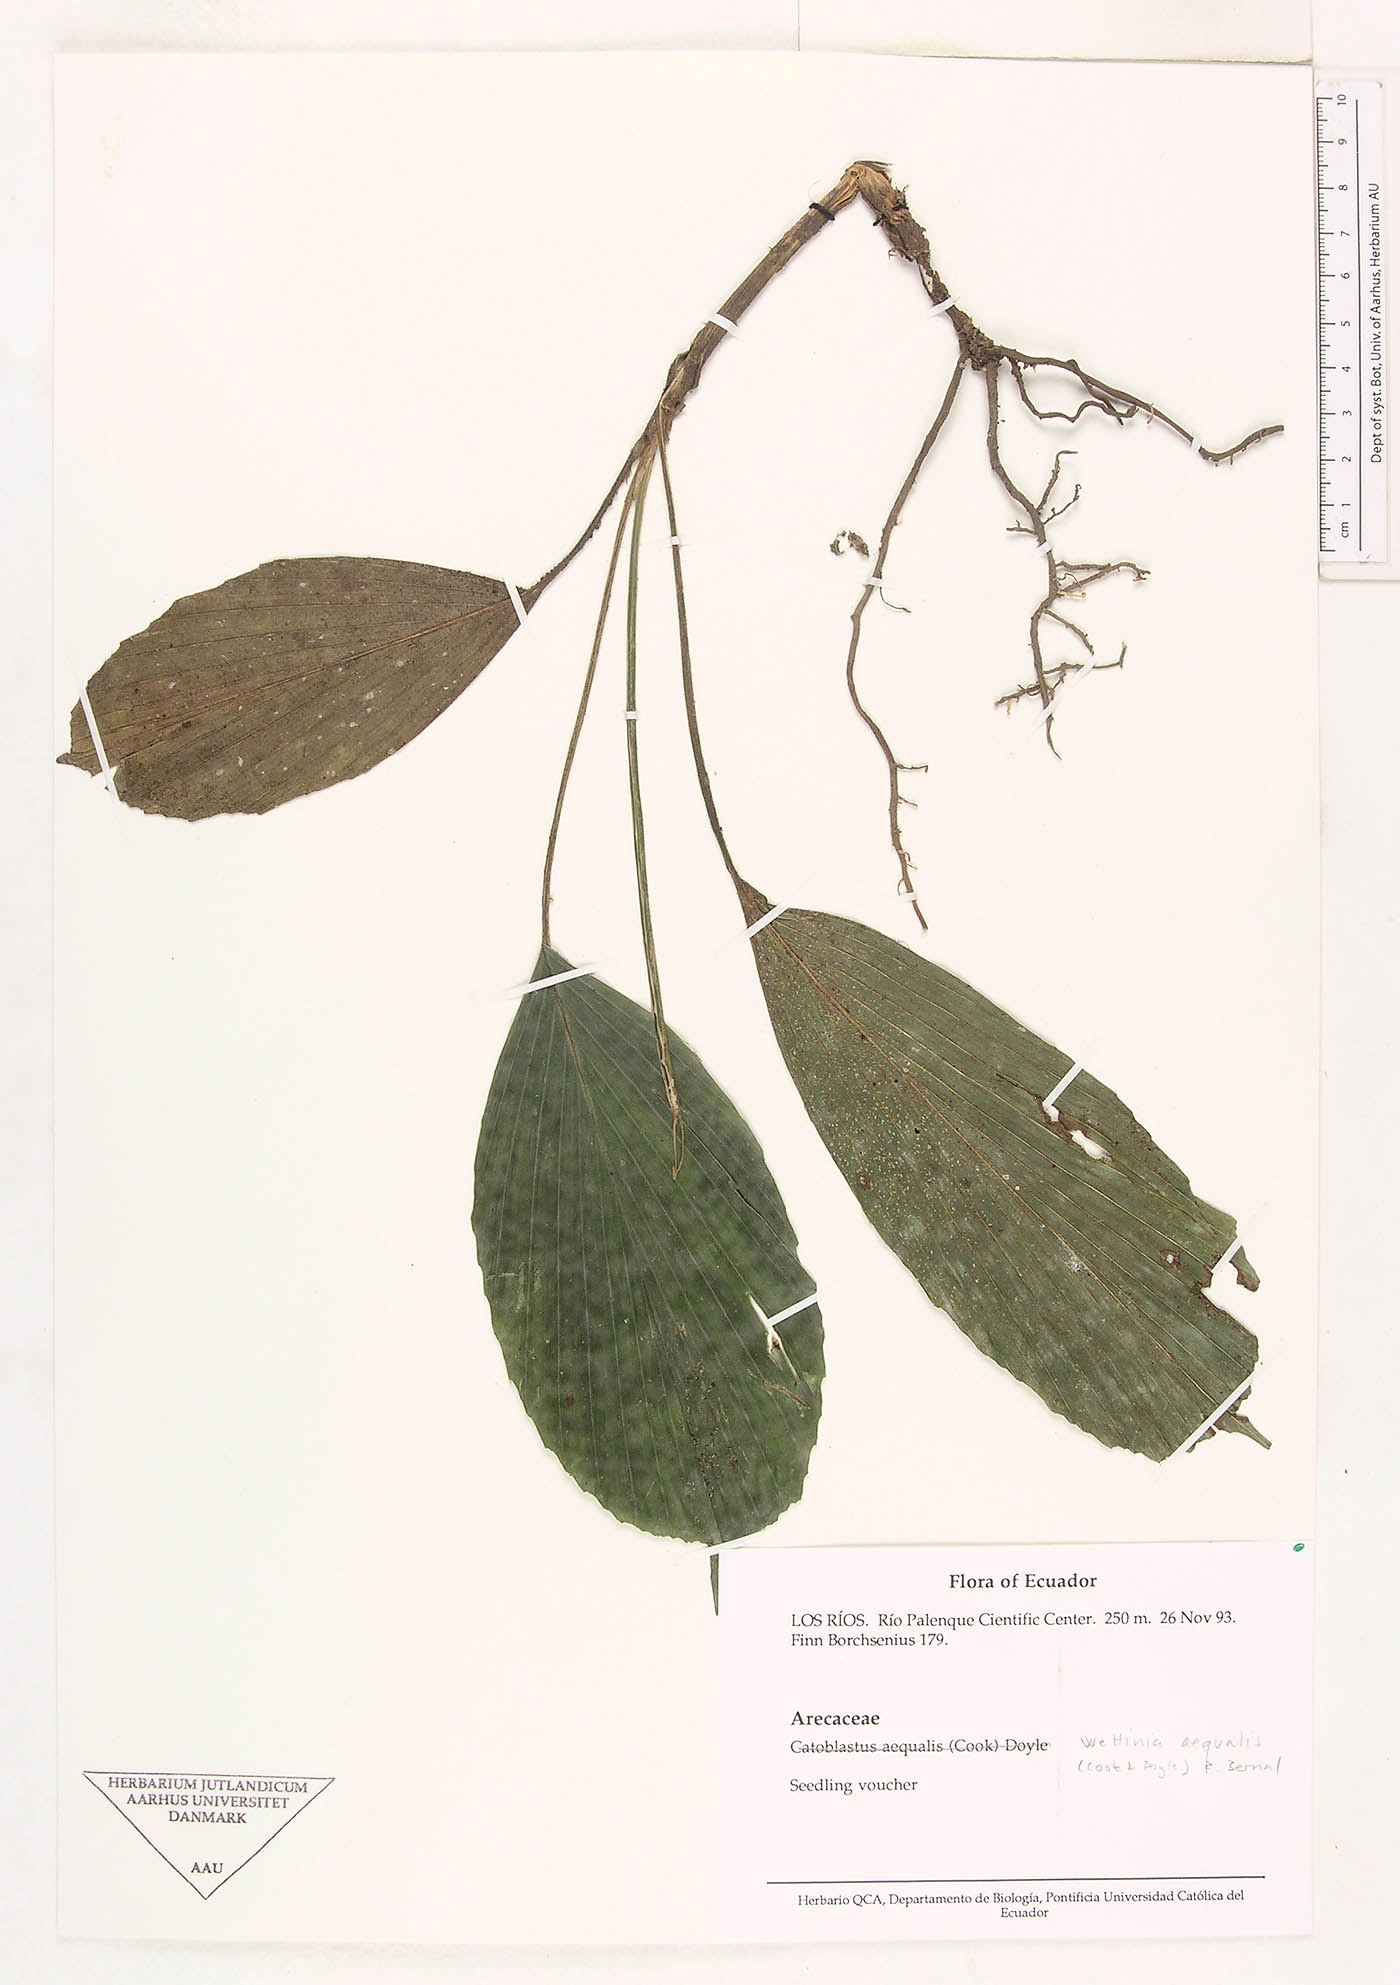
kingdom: Plantae
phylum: Tracheophyta
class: Liliopsida
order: Arecales
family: Arecaceae
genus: Wettinia
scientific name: Wettinia aequalis
